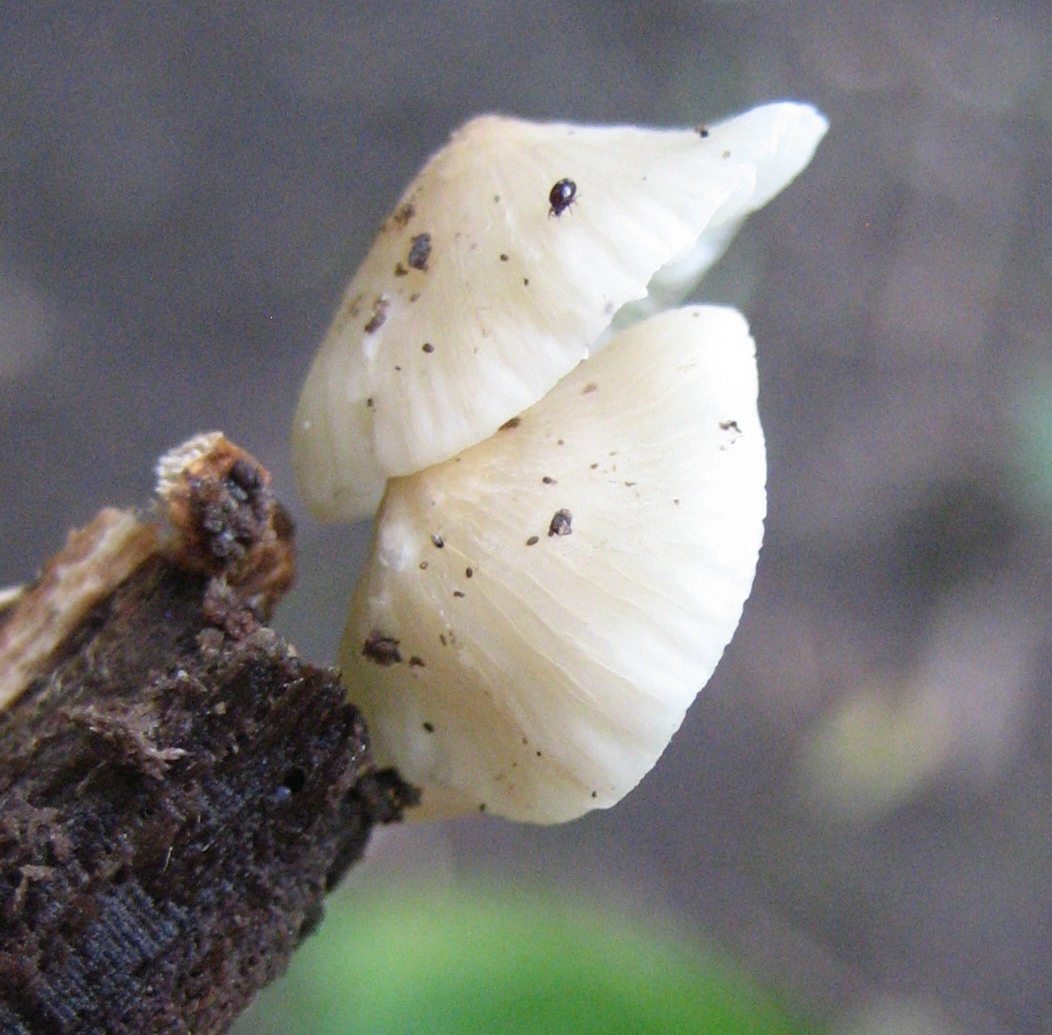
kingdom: Fungi
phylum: Basidiomycota
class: Agaricomycetes
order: Agaricales
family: Mycenaceae
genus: Mycena
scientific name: Mycena galericulata
